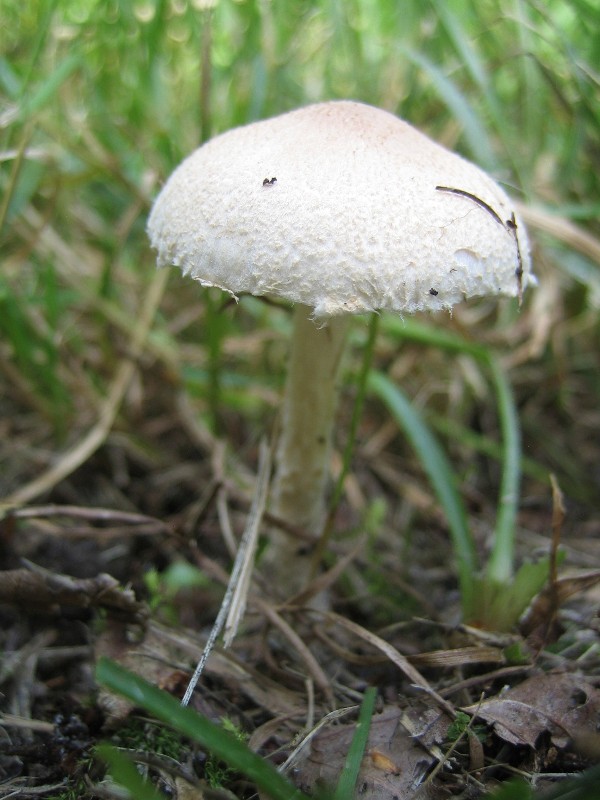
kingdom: Fungi
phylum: Basidiomycota
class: Agaricomycetes
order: Agaricales
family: Agaricaceae
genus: Lepiota
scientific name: Lepiota clypeolaria
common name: flosset parasolhat
